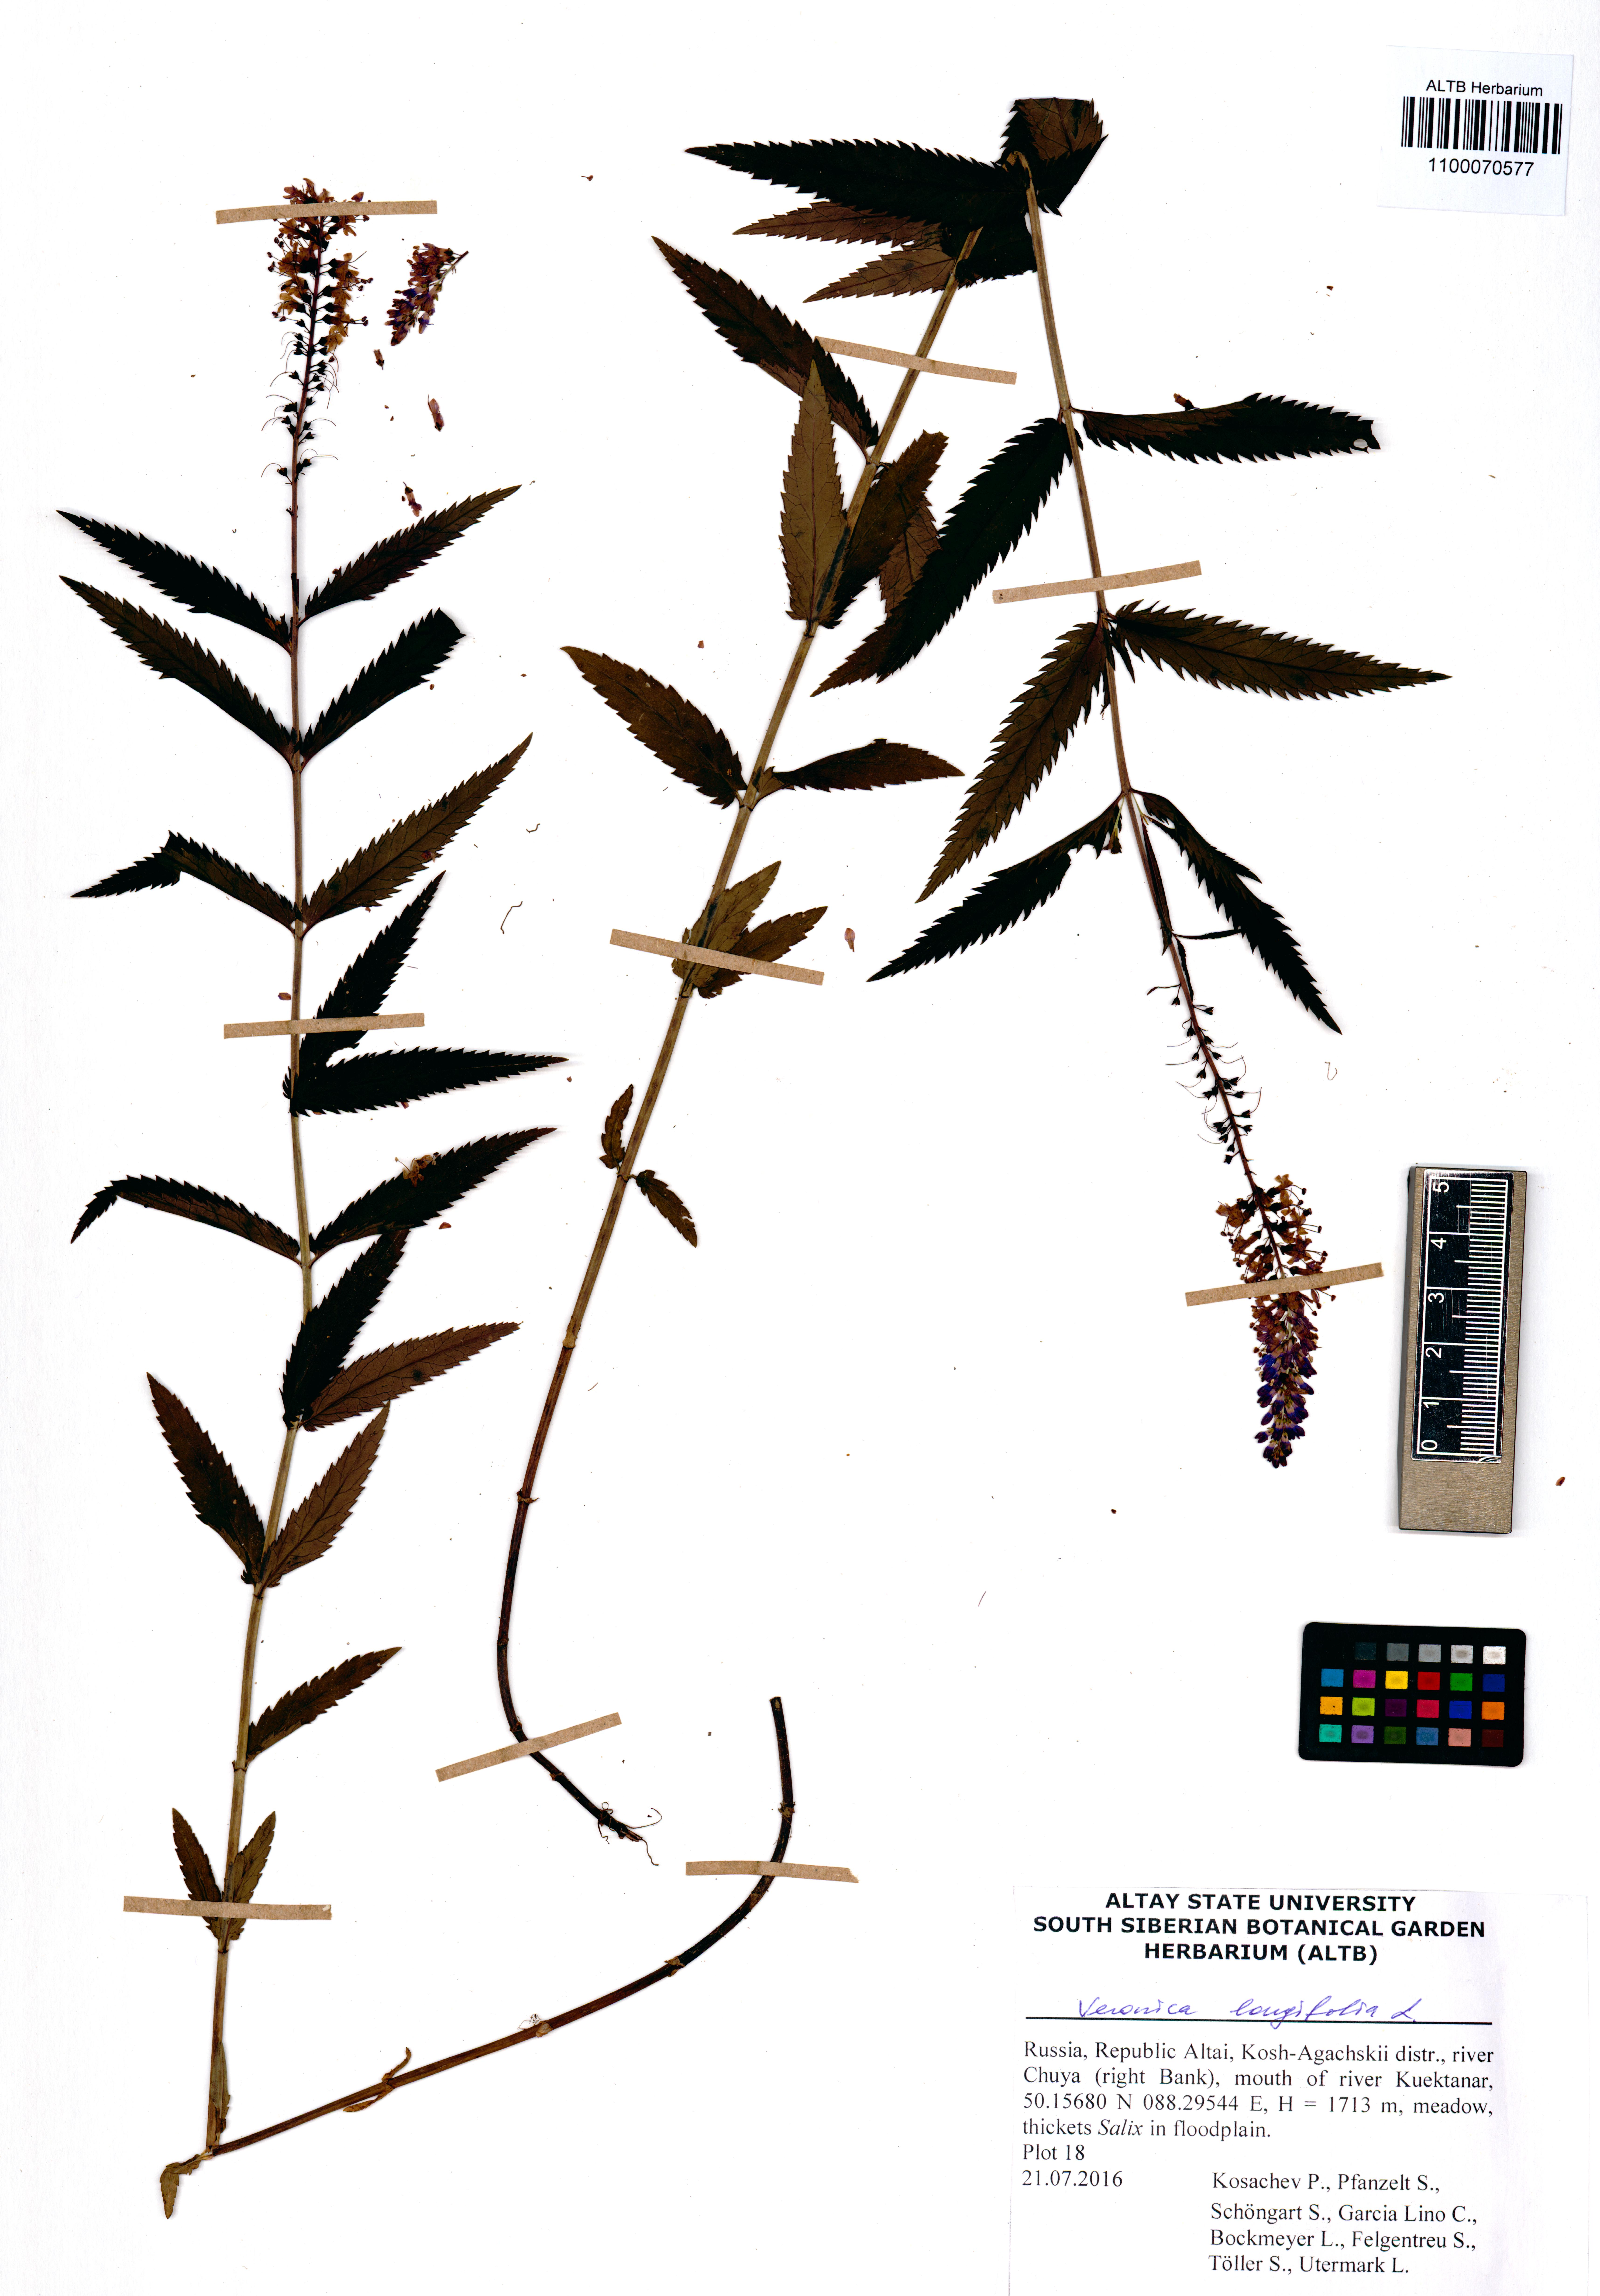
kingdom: Plantae
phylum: Tracheophyta
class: Magnoliopsida
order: Lamiales
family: Plantaginaceae
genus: Veronica
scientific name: Veronica longifolia
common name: Garden speedwell
